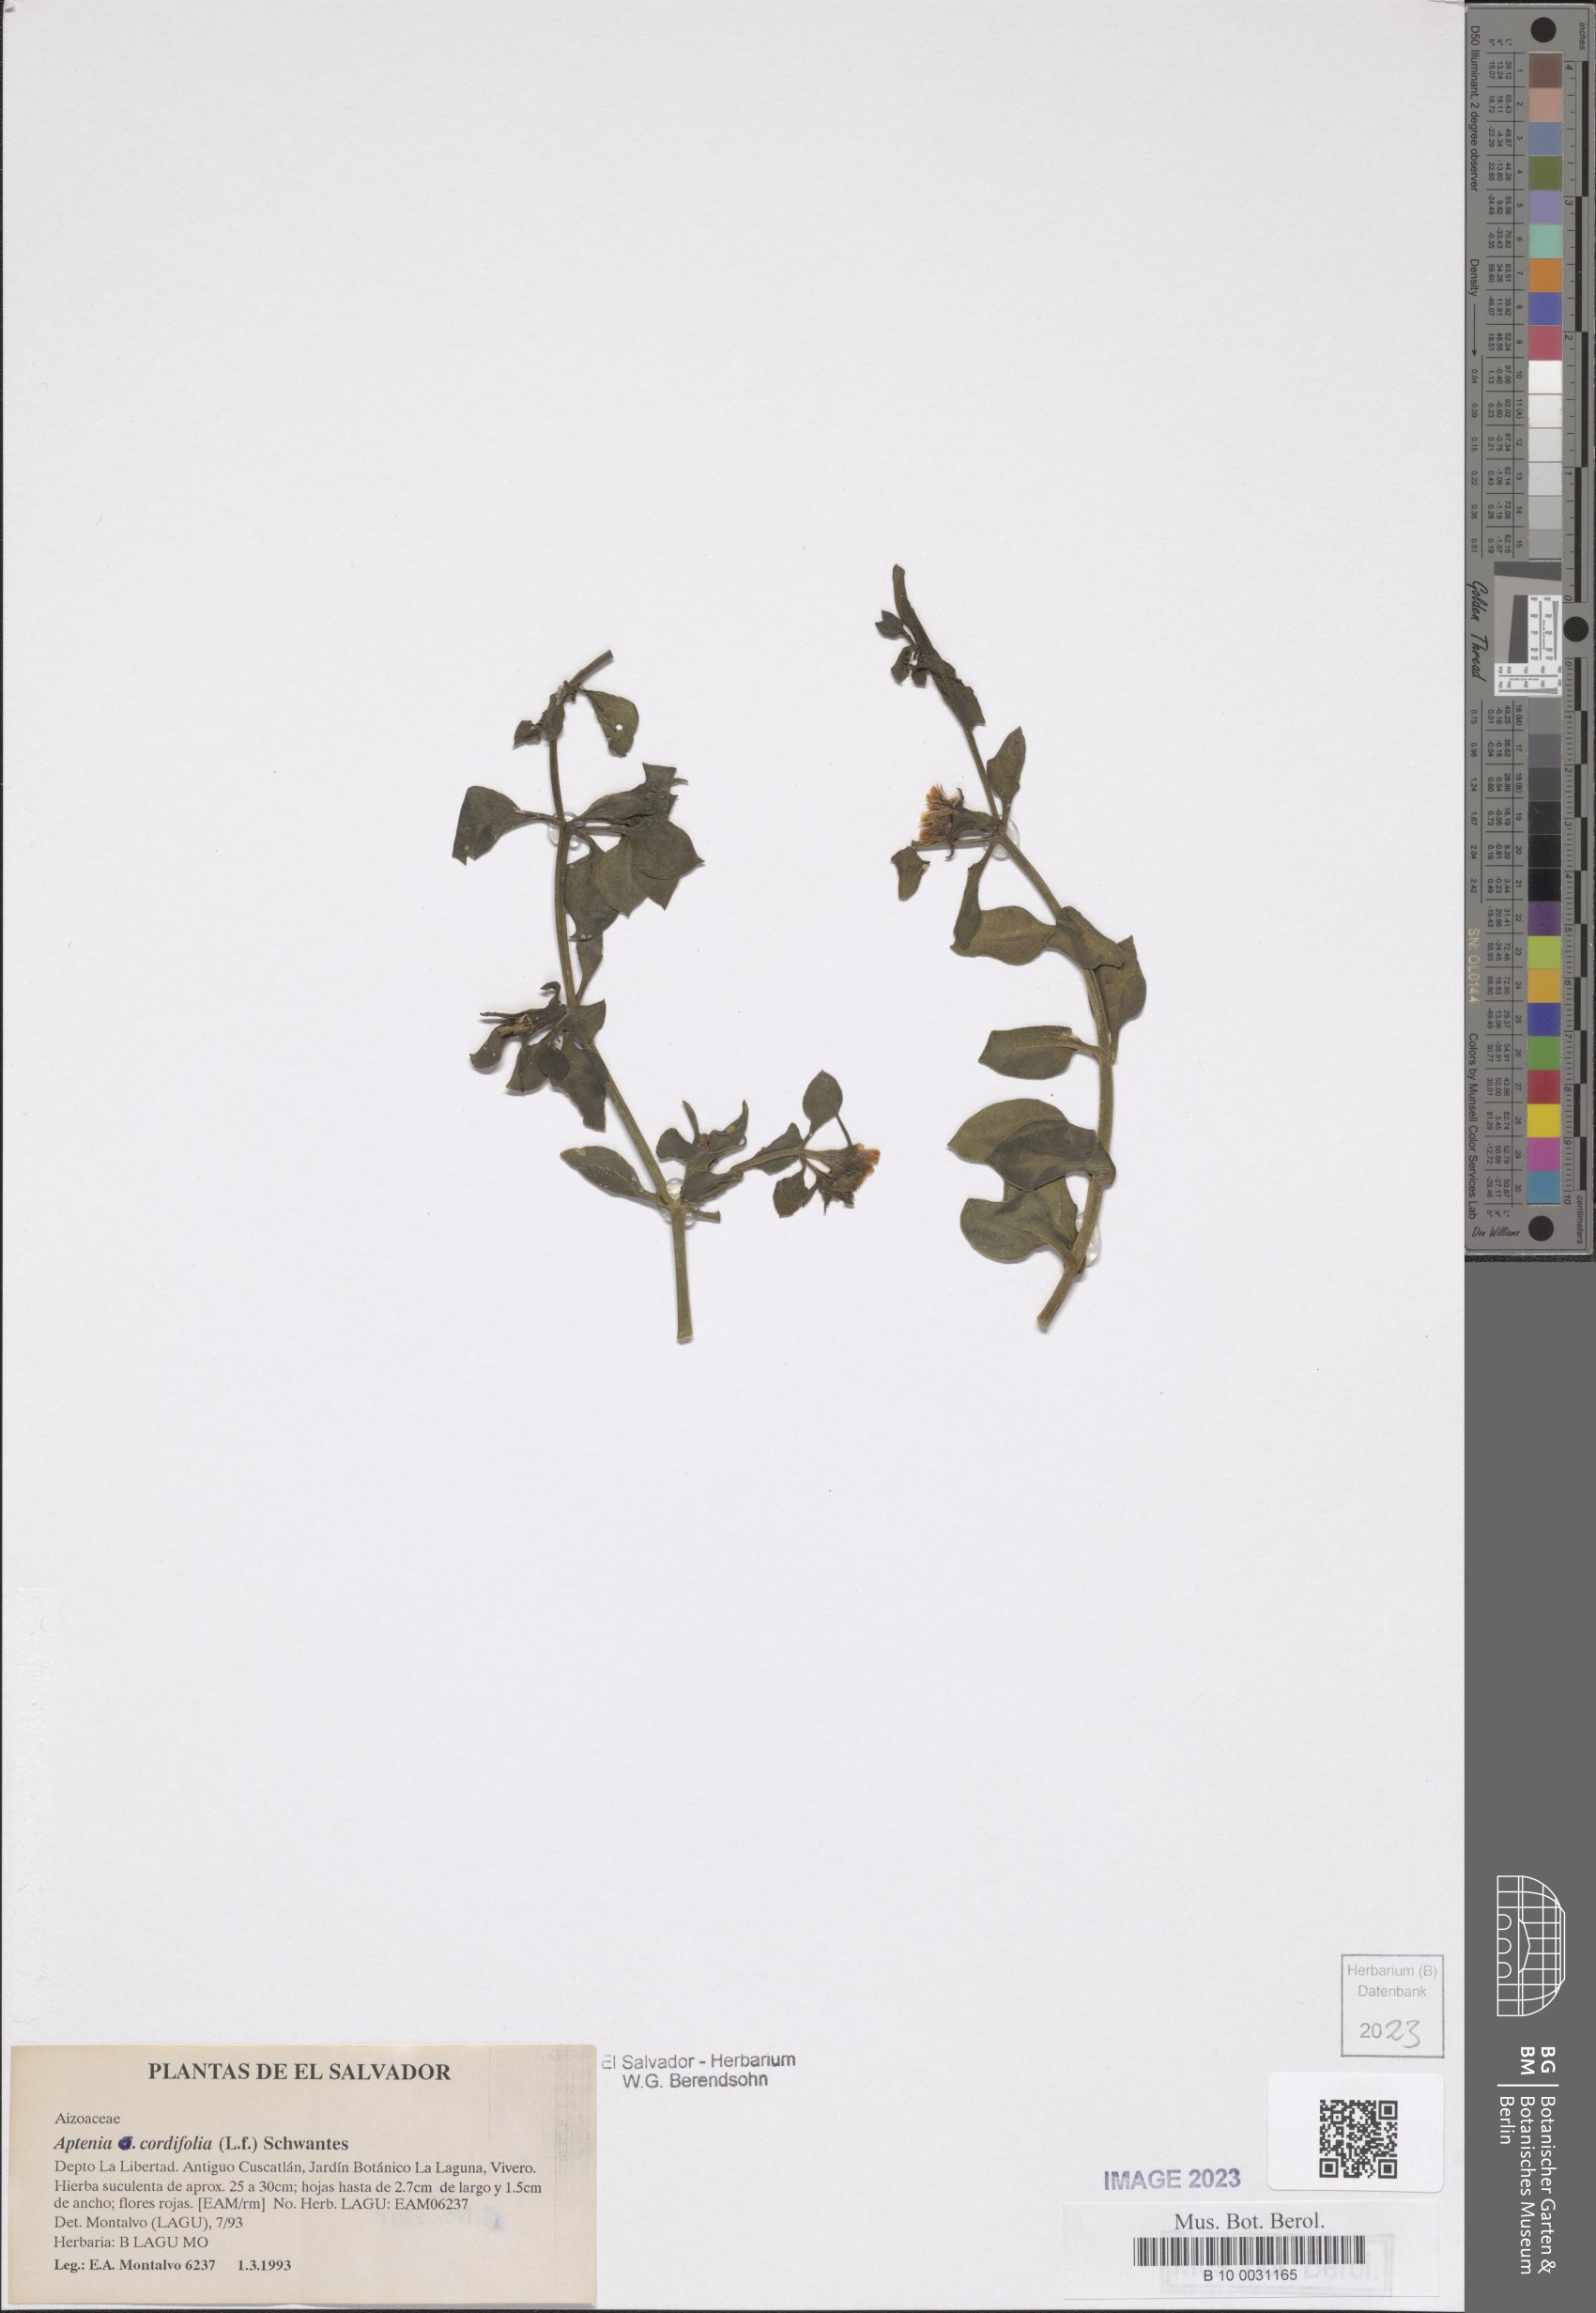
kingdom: Plantae
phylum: Tracheophyta
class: Magnoliopsida
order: Caryophyllales
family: Aizoaceae
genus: Mesembryanthemum
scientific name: Mesembryanthemum cordifolium
